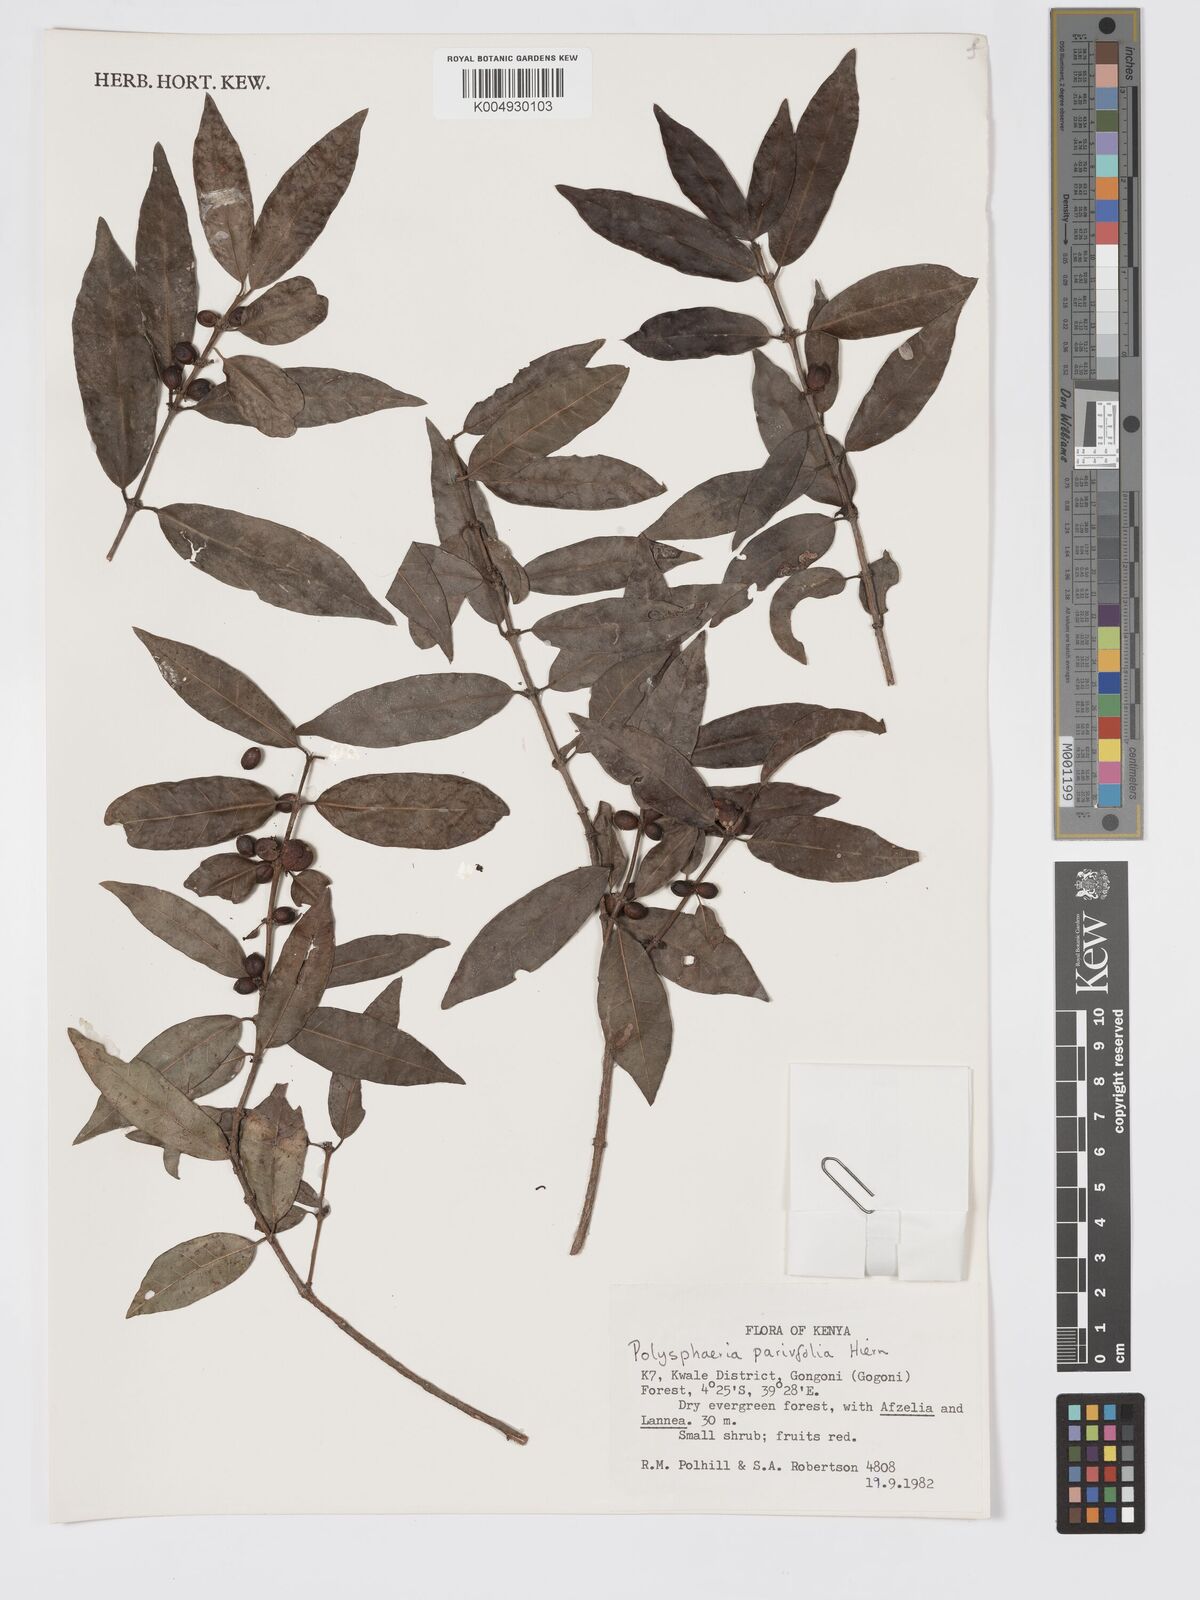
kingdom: Plantae
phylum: Tracheophyta
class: Magnoliopsida
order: Gentianales
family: Rubiaceae
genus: Eumachia
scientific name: Eumachia parviflora
